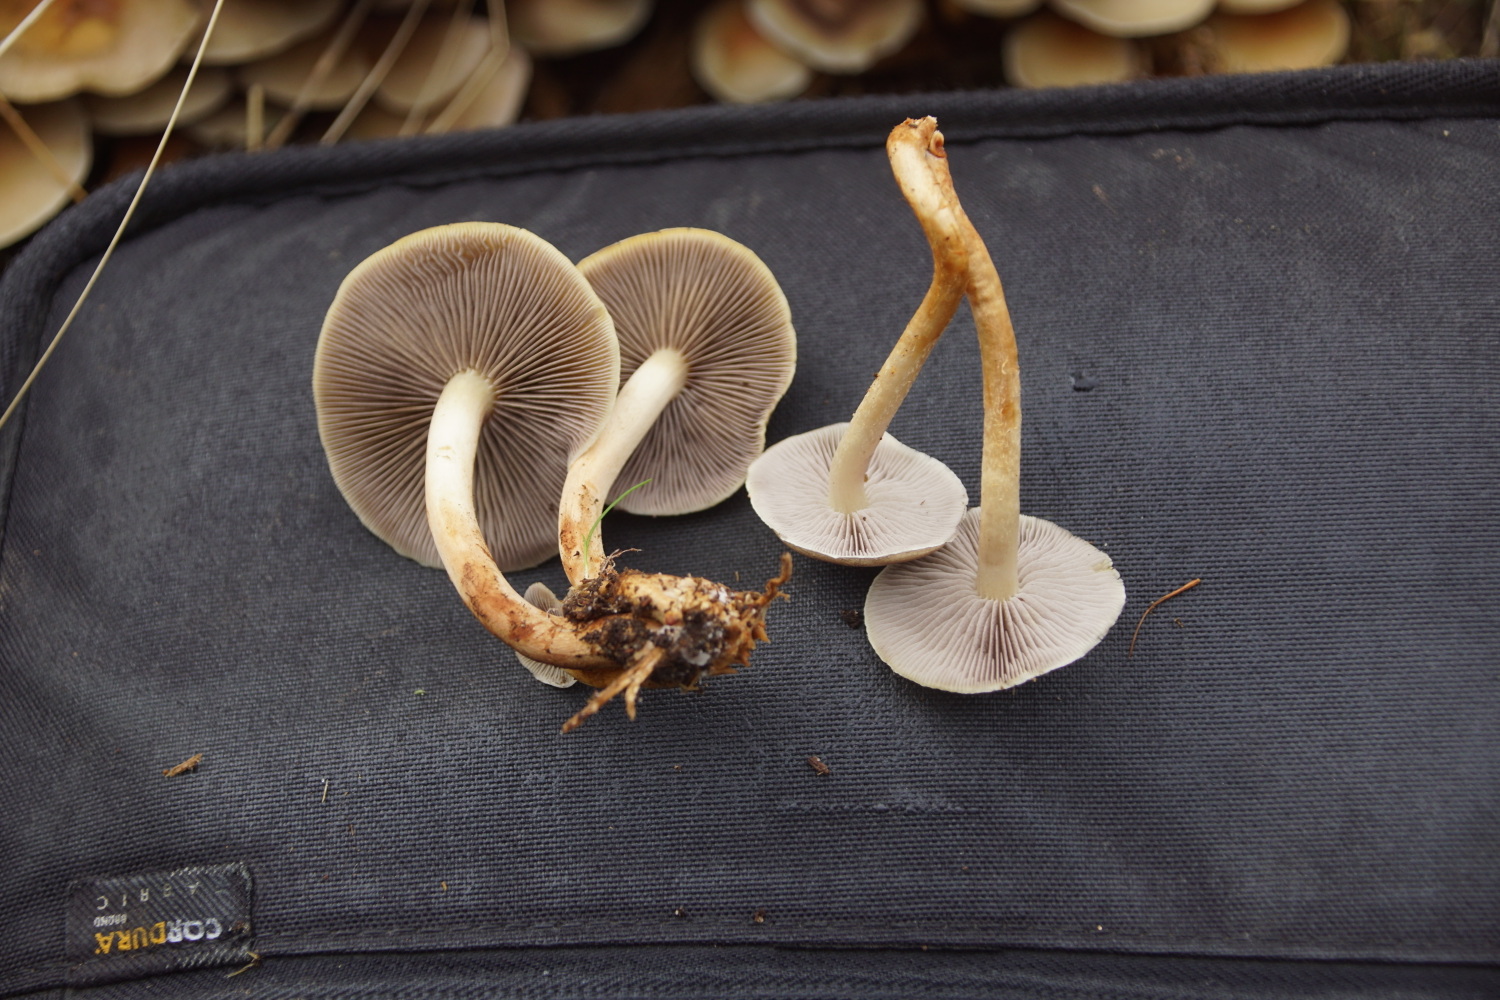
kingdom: Fungi
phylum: Basidiomycota
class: Agaricomycetes
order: Agaricales
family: Strophariaceae
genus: Hypholoma
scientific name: Hypholoma capnoides
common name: gran-svovlhat
